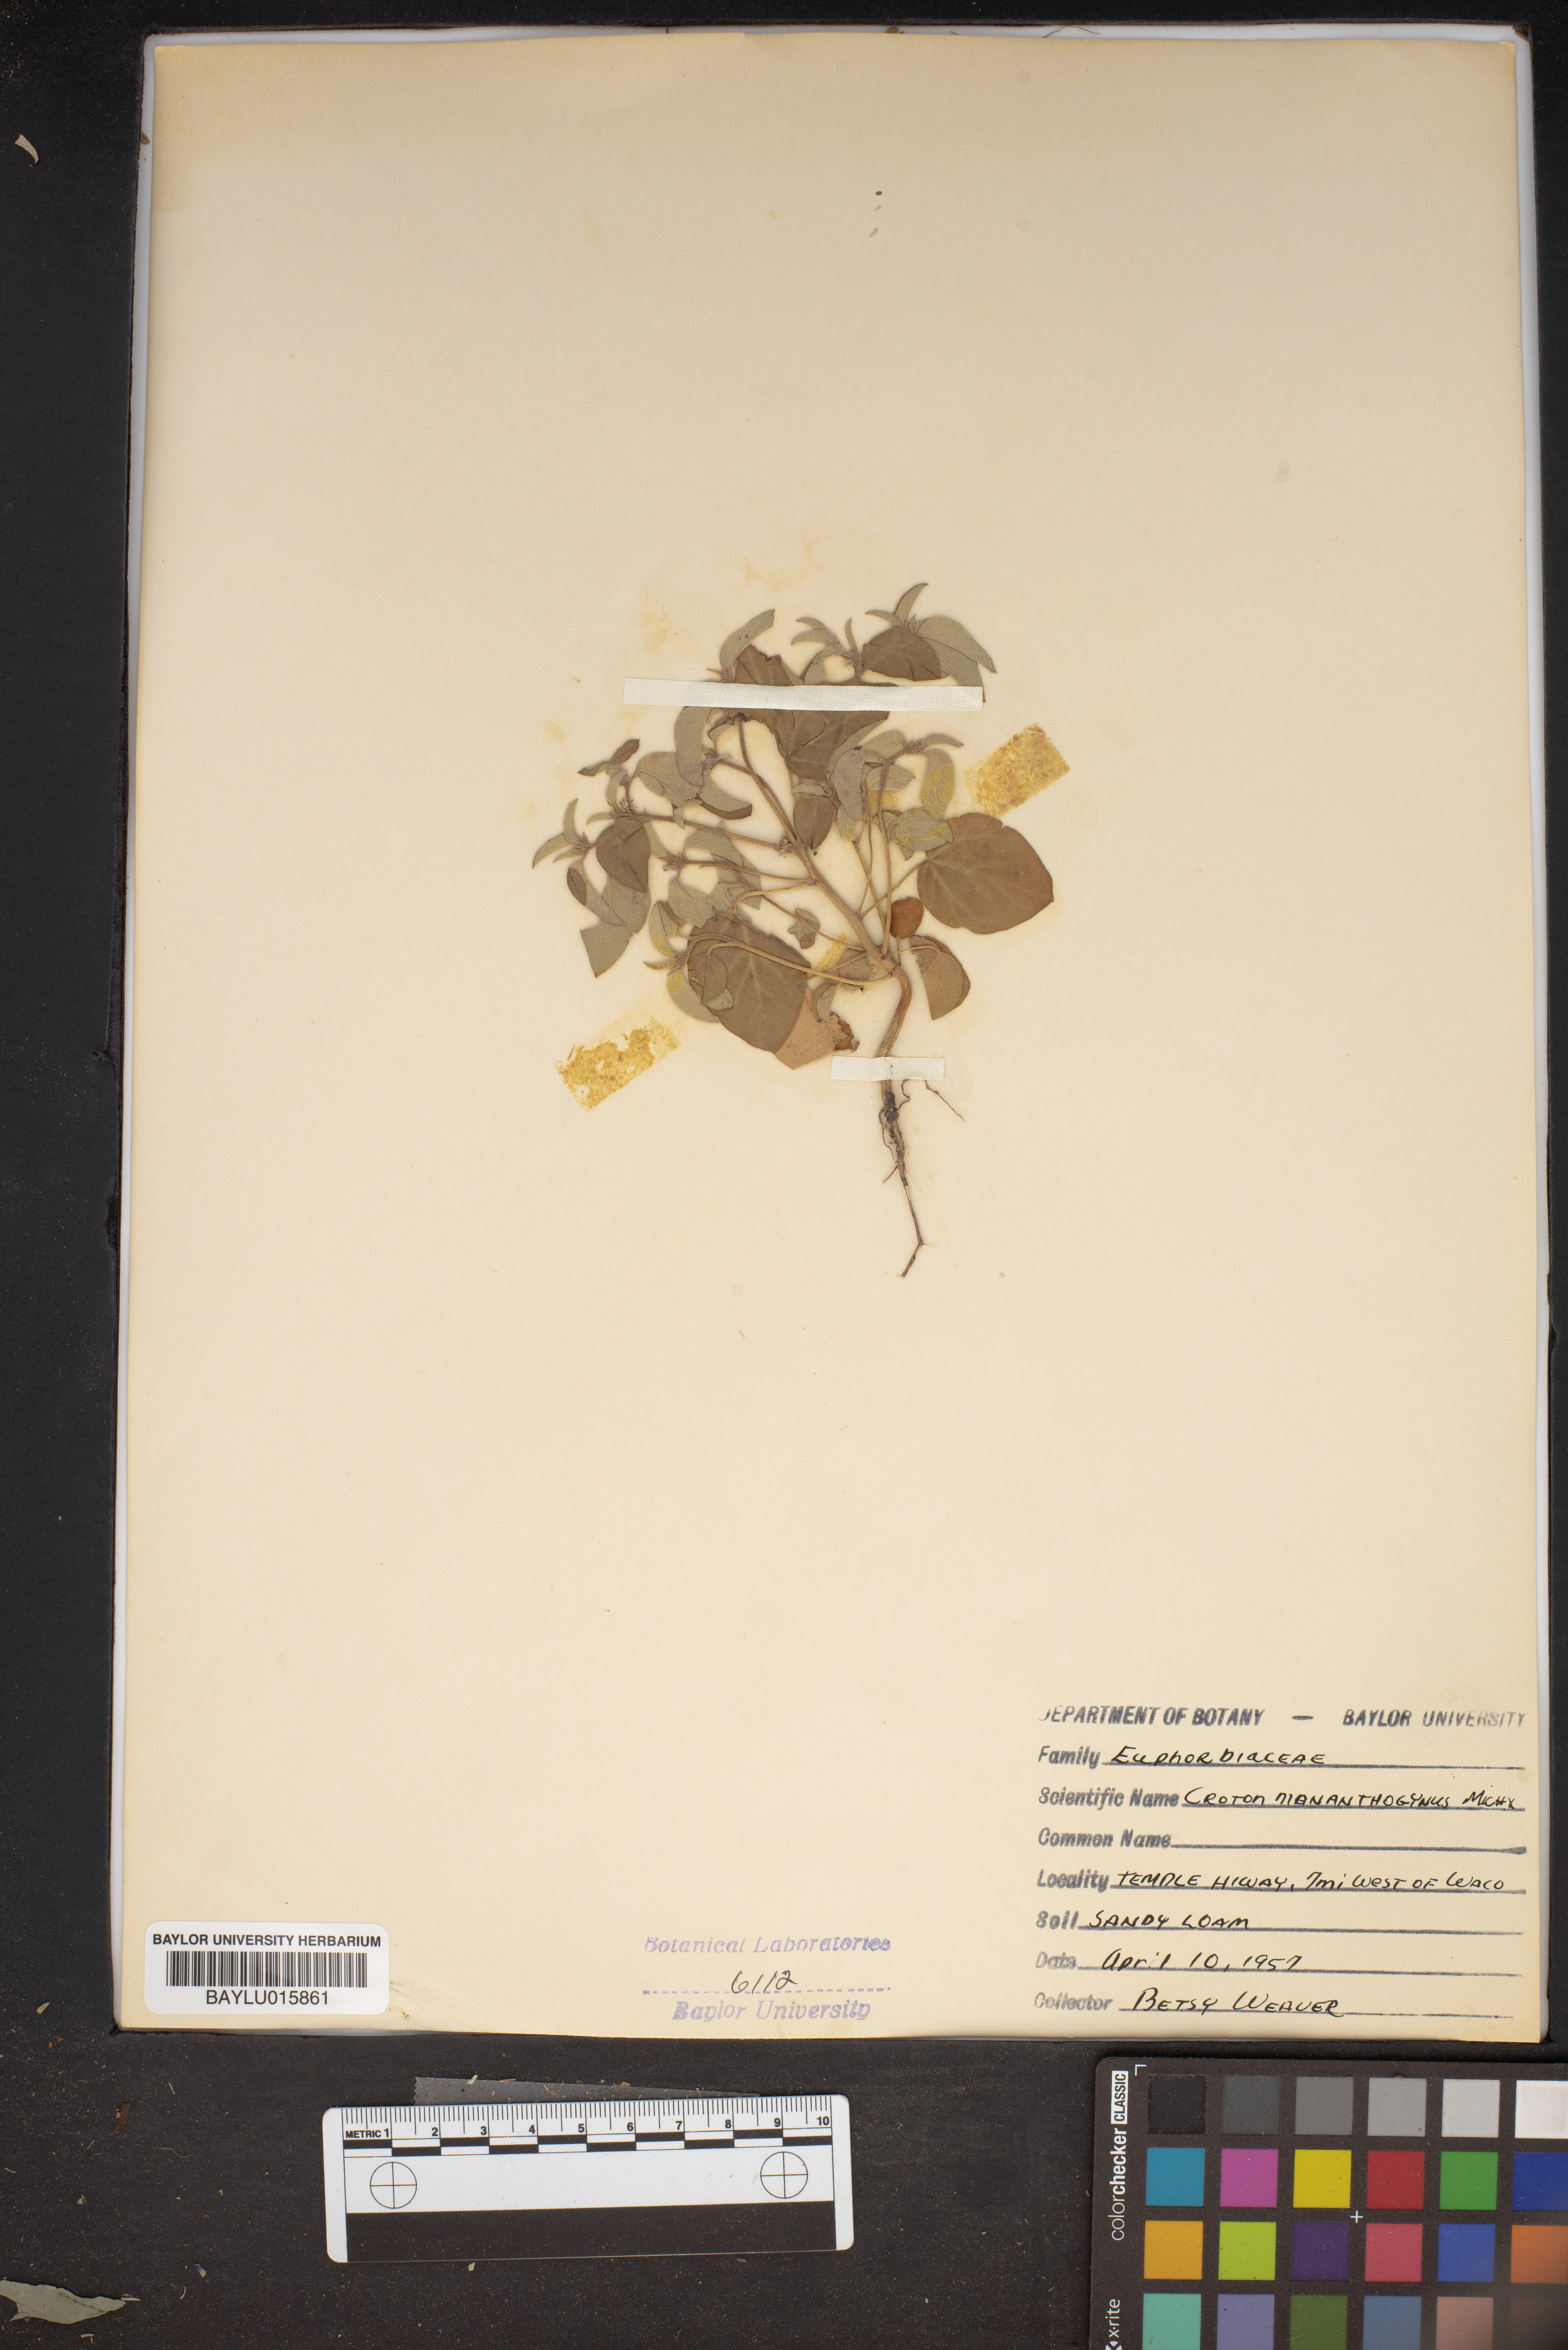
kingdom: Plantae
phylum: Tracheophyta
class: Magnoliopsida
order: Malpighiales
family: Euphorbiaceae
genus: Croton
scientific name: Croton monanthogynus
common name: One-seed croton
